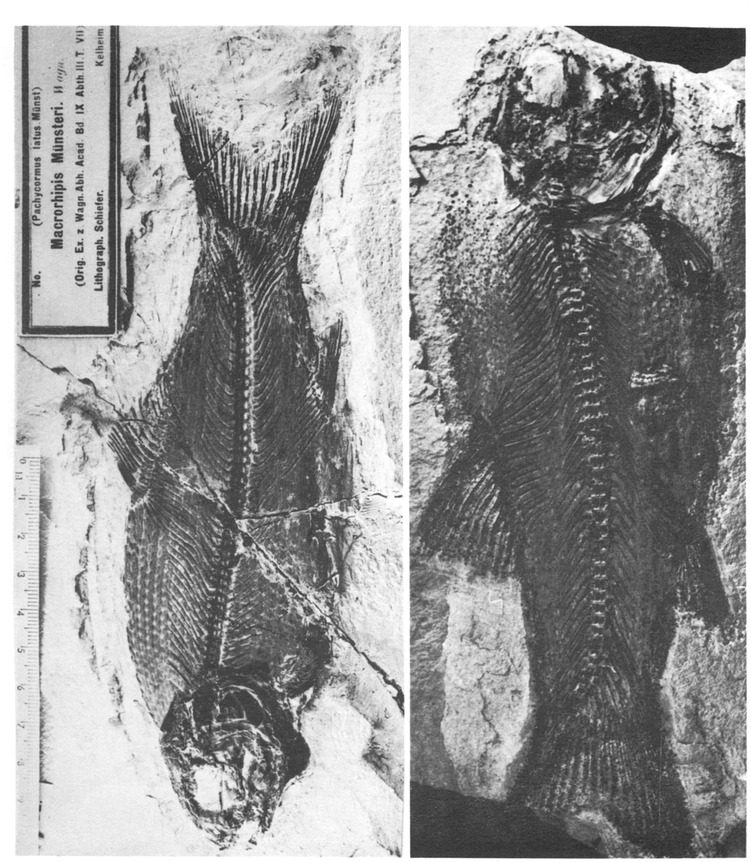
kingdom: Animalia
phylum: Chordata
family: Pachycormidae
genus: Pachycormus
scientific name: Pachycormus macropterus
